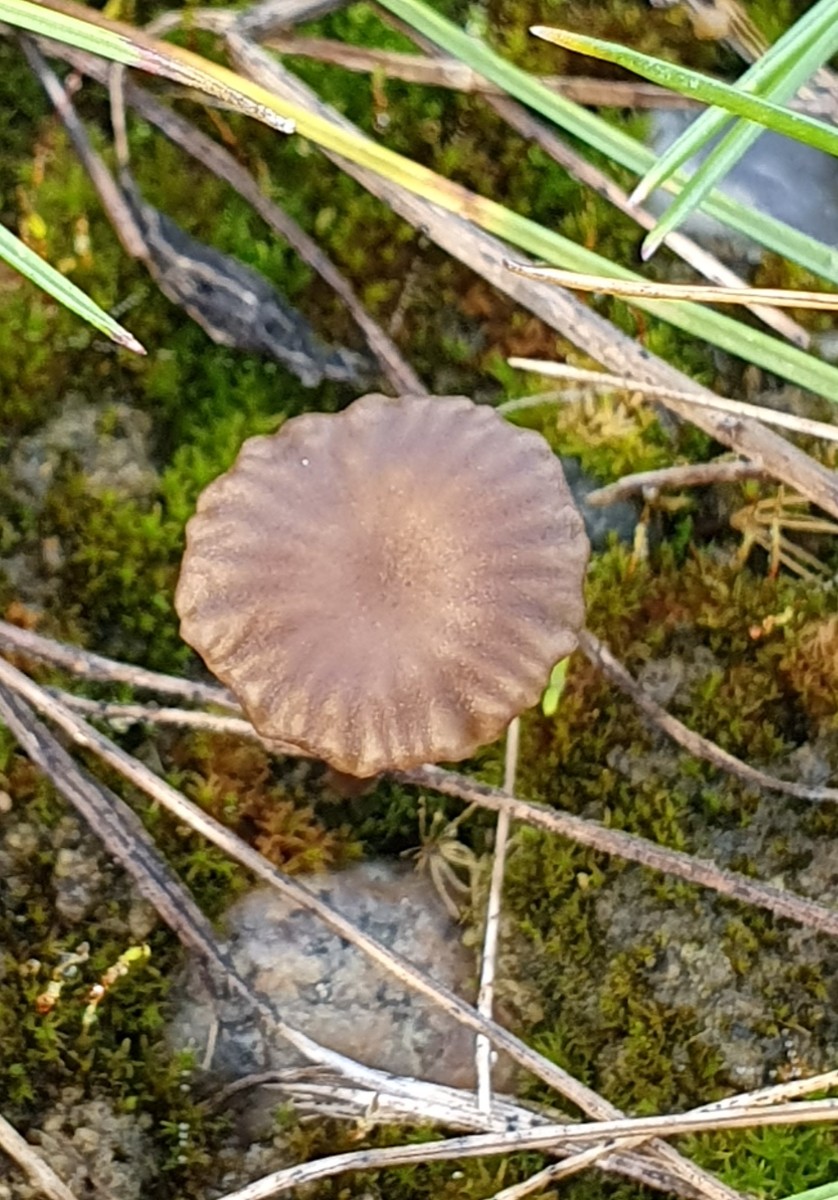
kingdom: Fungi
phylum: Basidiomycota
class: Agaricomycetes
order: Agaricales
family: Hygrophoraceae
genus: Arrhenia
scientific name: Arrhenia rustica
